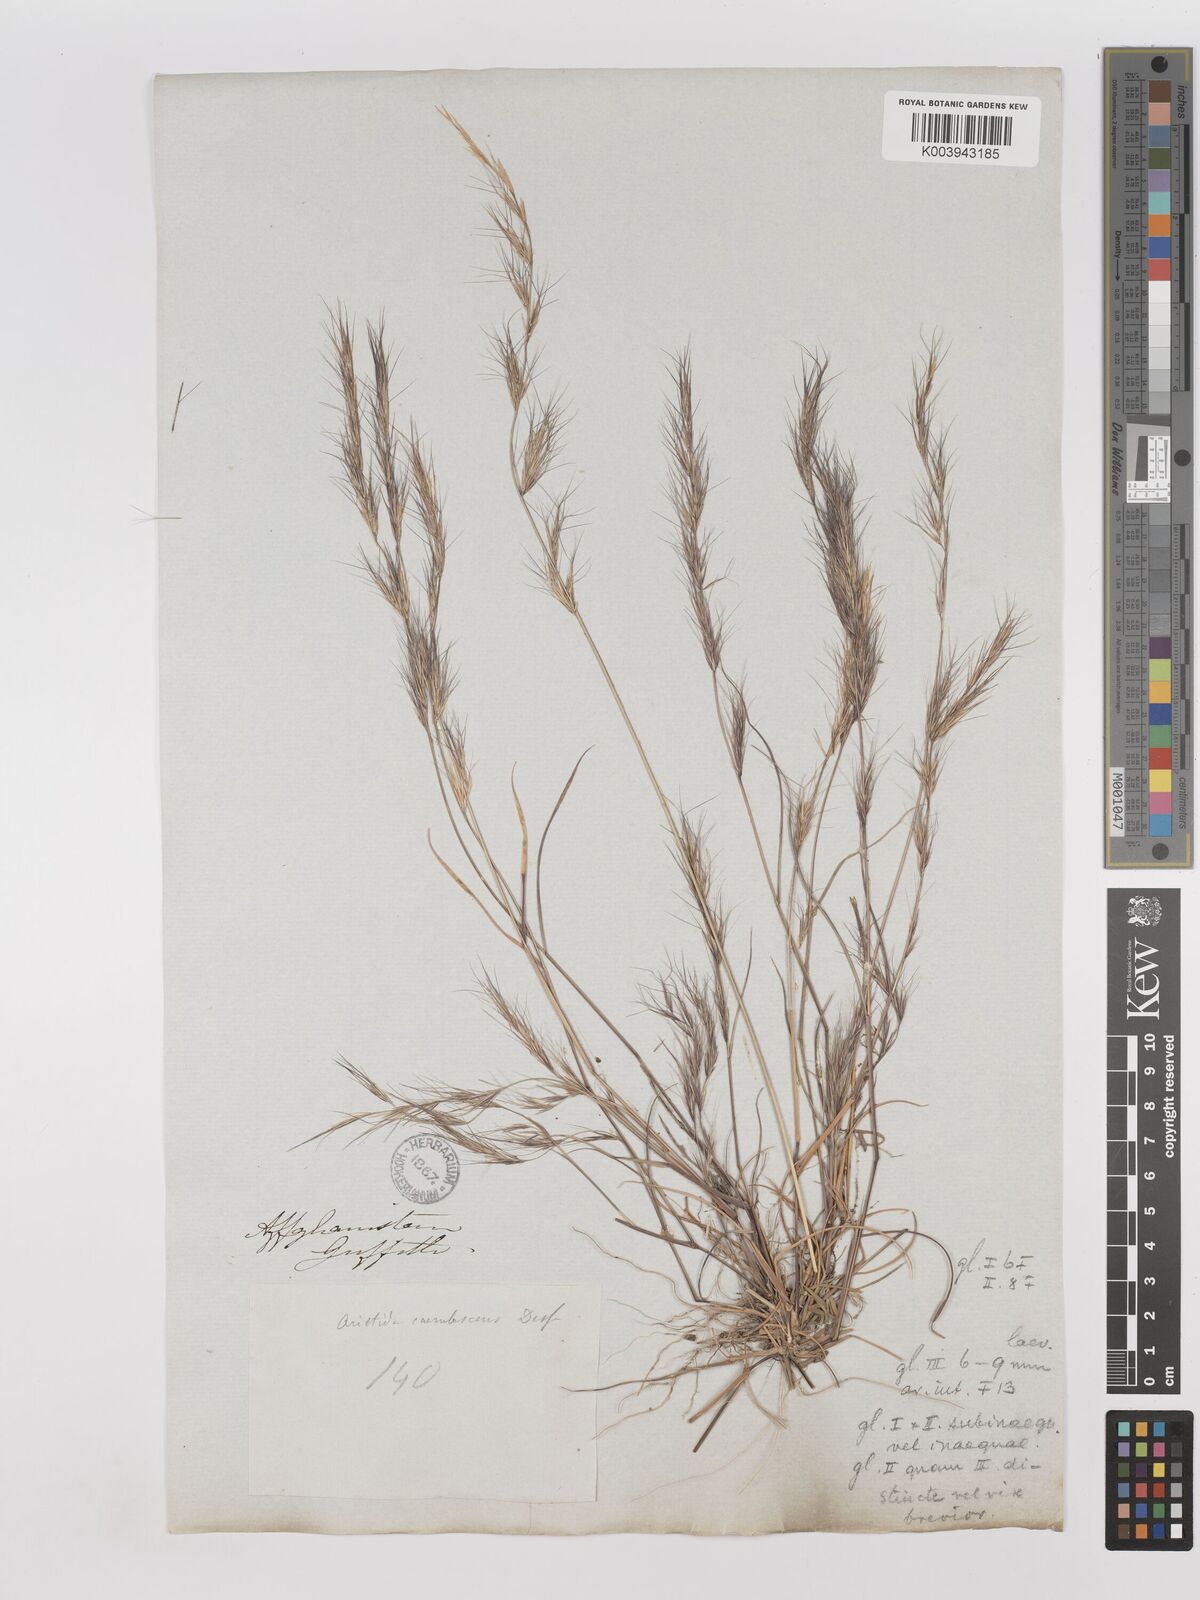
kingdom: Plantae
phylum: Tracheophyta
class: Liliopsida
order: Poales
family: Poaceae
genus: Aristida
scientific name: Aristida adscensionis
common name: Sixweeks threeawn
